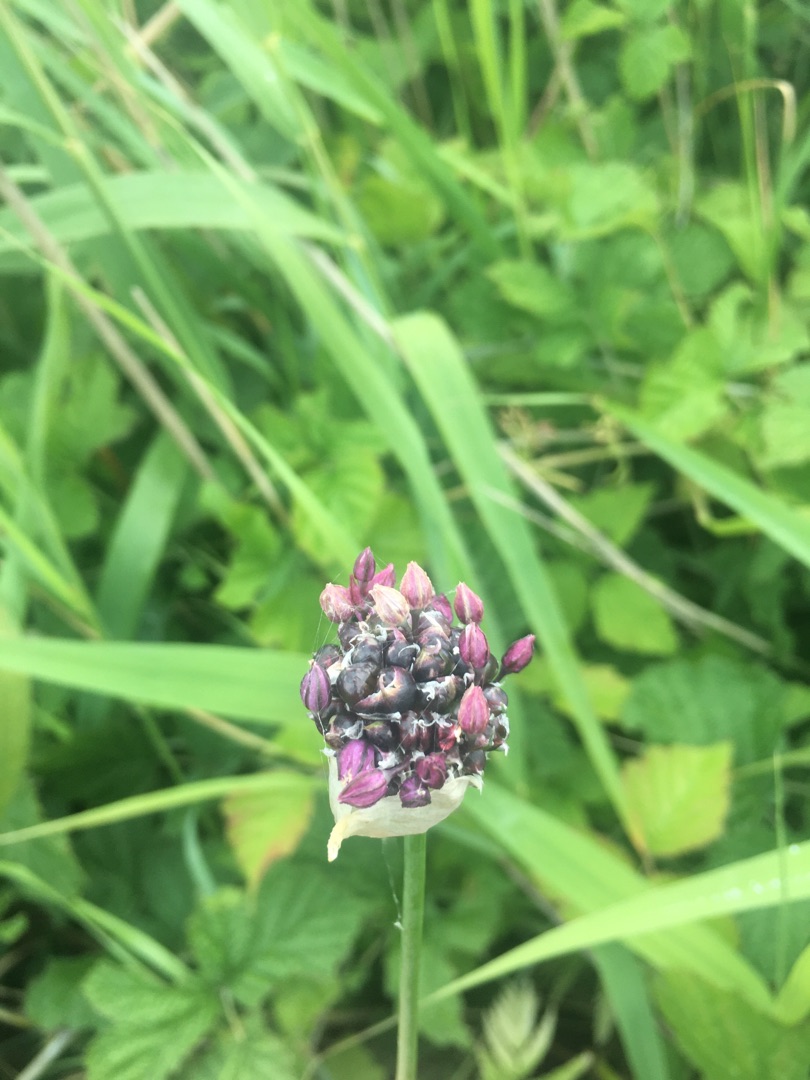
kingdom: Plantae
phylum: Tracheophyta
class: Liliopsida
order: Asparagales
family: Amaryllidaceae
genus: Allium
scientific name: Allium scorodoprasum
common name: Skov-løg
